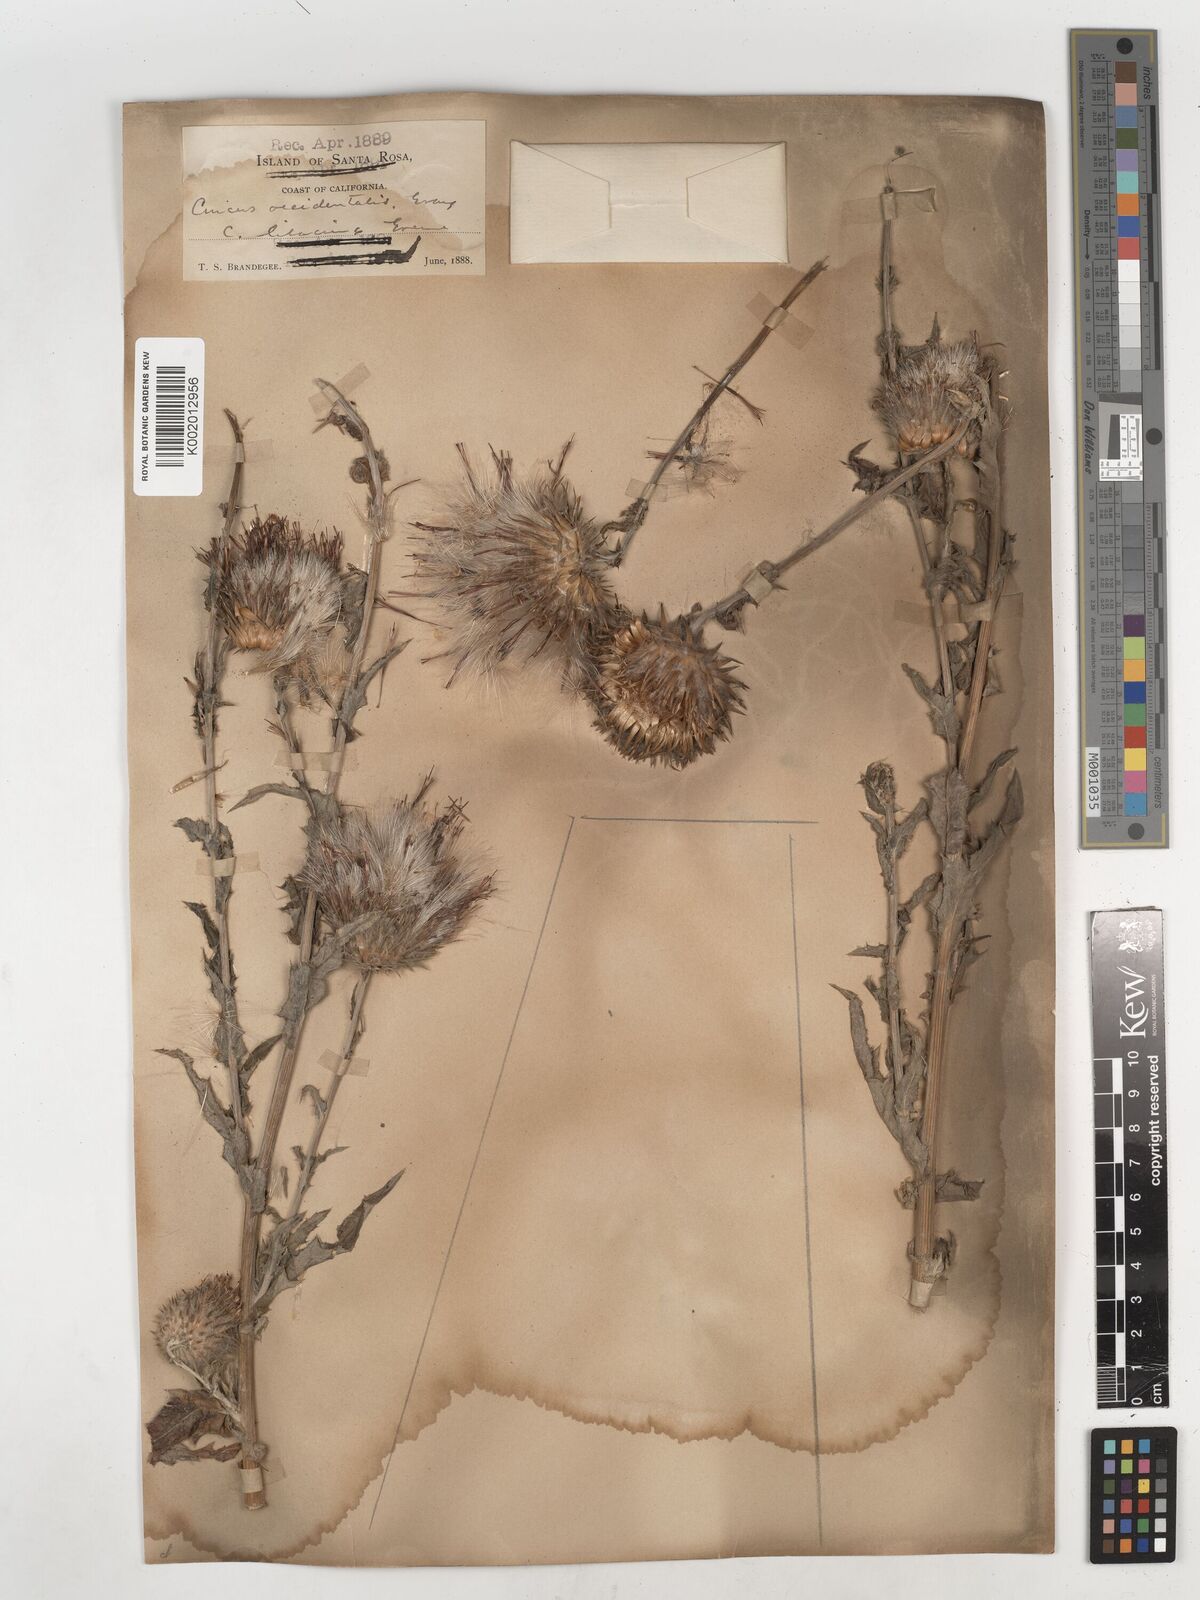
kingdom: Plantae
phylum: Tracheophyta
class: Magnoliopsida
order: Asterales
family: Asteraceae
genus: Cirsium
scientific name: Cirsium occidentale
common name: Western thistle
